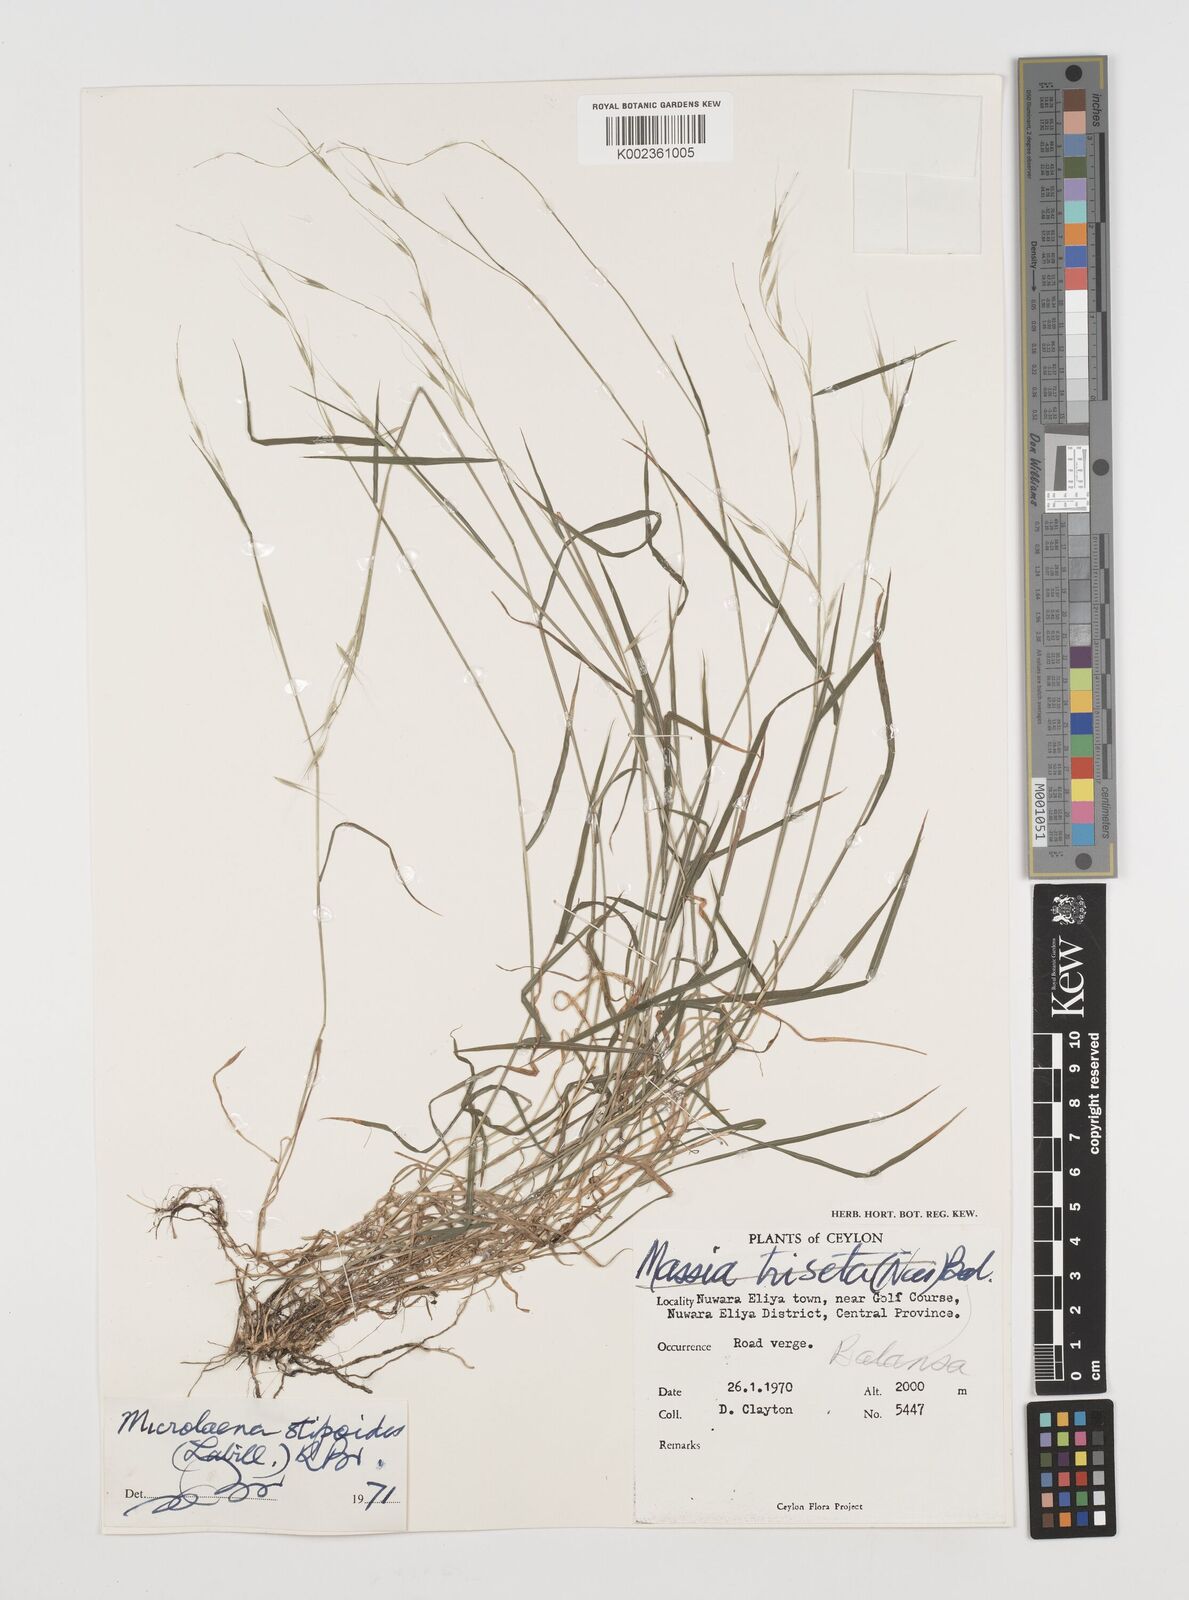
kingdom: Plantae
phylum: Tracheophyta
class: Liliopsida
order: Poales
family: Poaceae
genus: Microlaena
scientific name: Microlaena stipoides
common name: Meadow ricegrass
